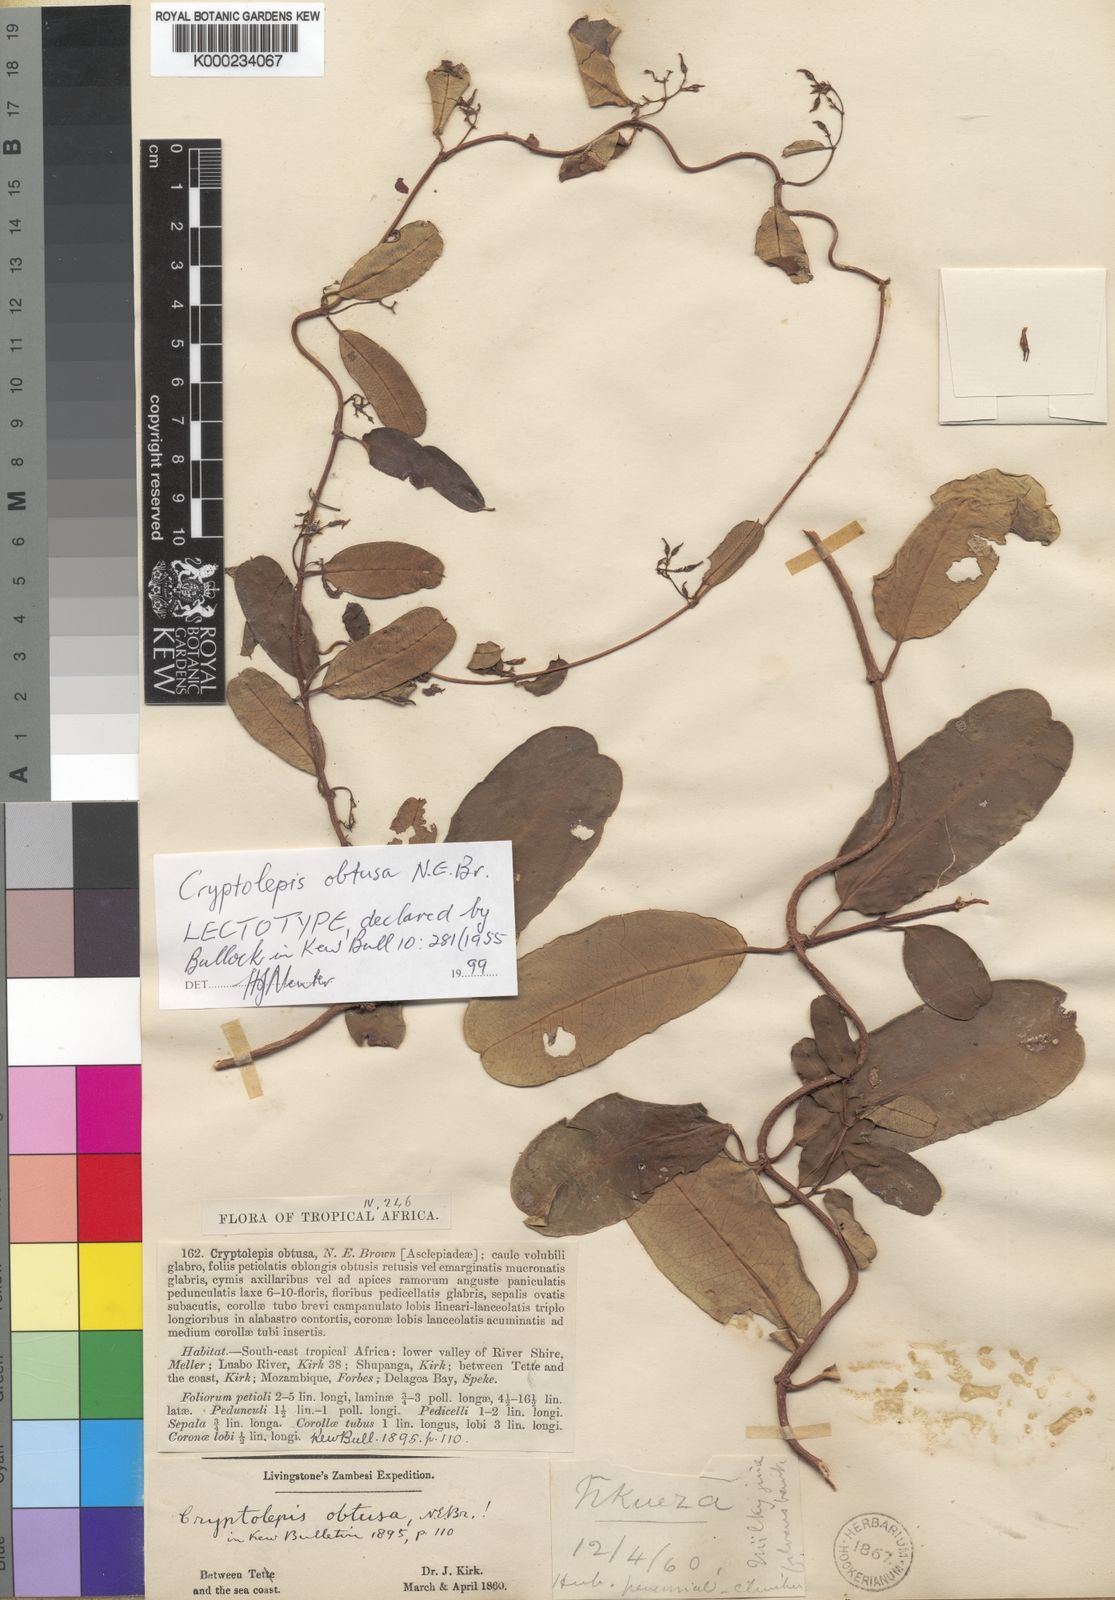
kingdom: Plantae
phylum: Tracheophyta
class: Magnoliopsida
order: Gentianales
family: Apocynaceae
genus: Cryptolepis
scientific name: Cryptolepis obtusa
